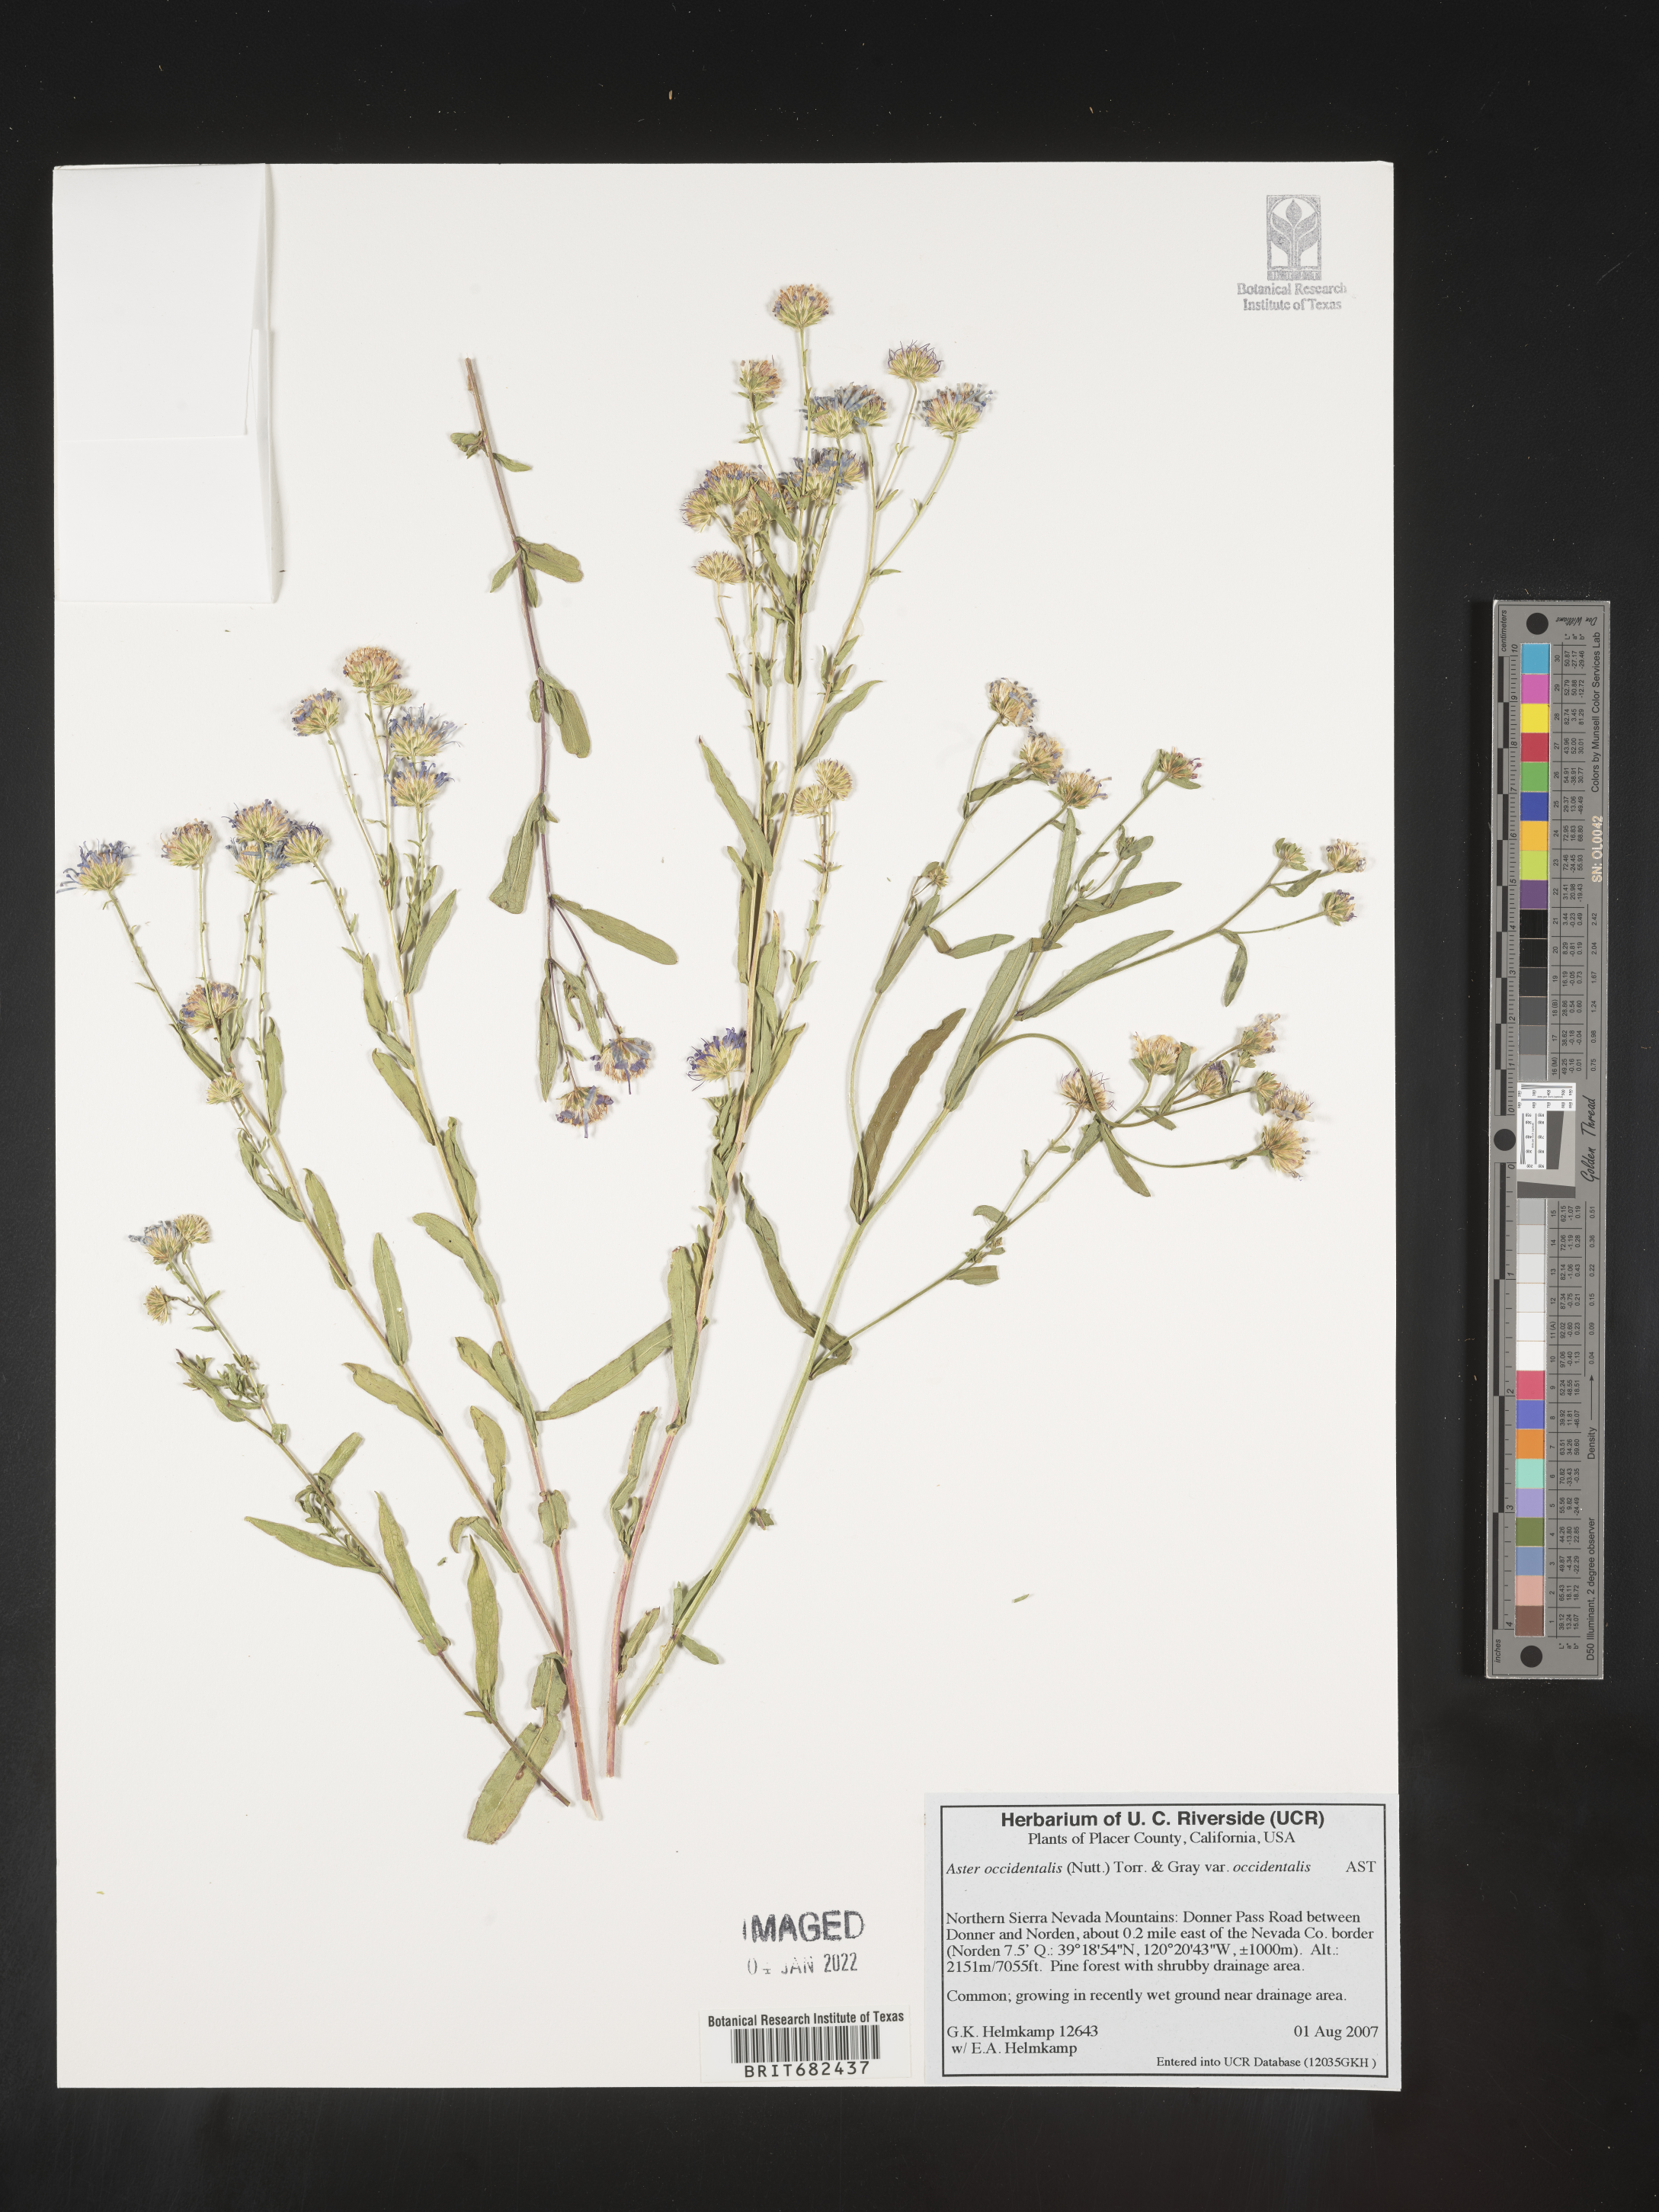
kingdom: Plantae
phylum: Tracheophyta
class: Magnoliopsida
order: Asterales
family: Asteraceae
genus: Aster
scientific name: Aster
